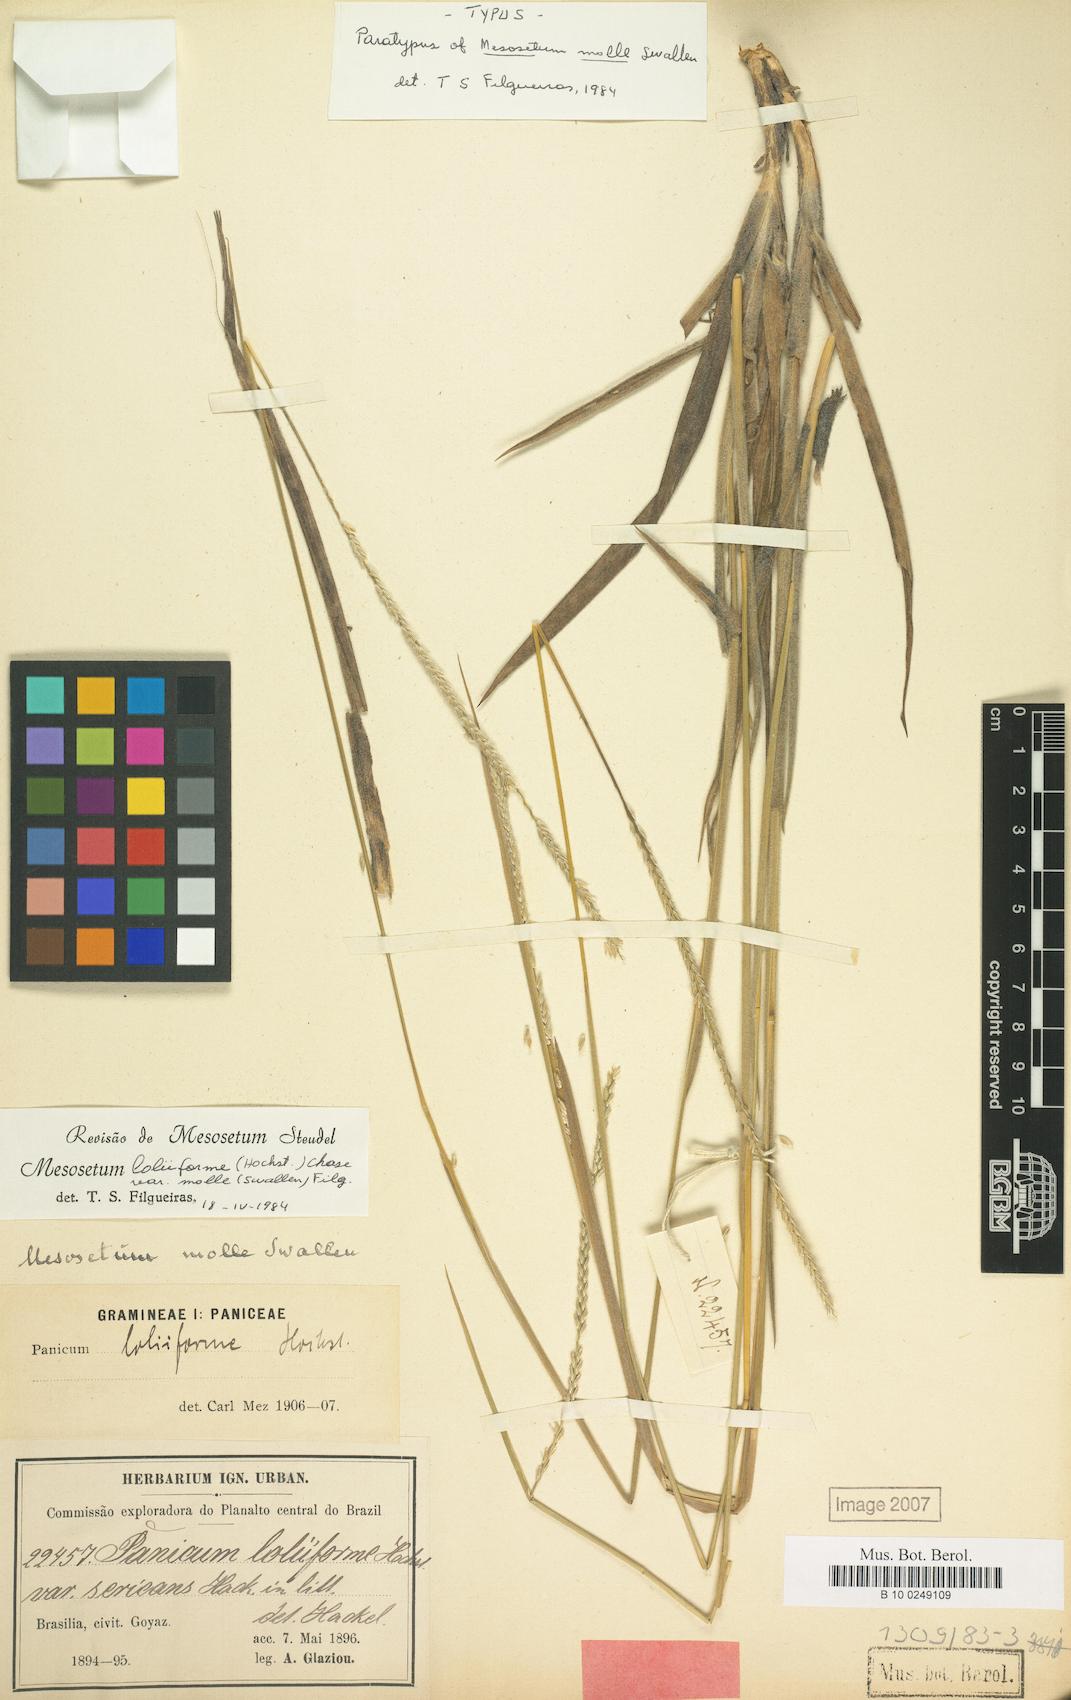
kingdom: Plantae
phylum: Tracheophyta
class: Liliopsida
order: Poales
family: Poaceae
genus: Mesosetum
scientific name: Mesosetum loliiforme
